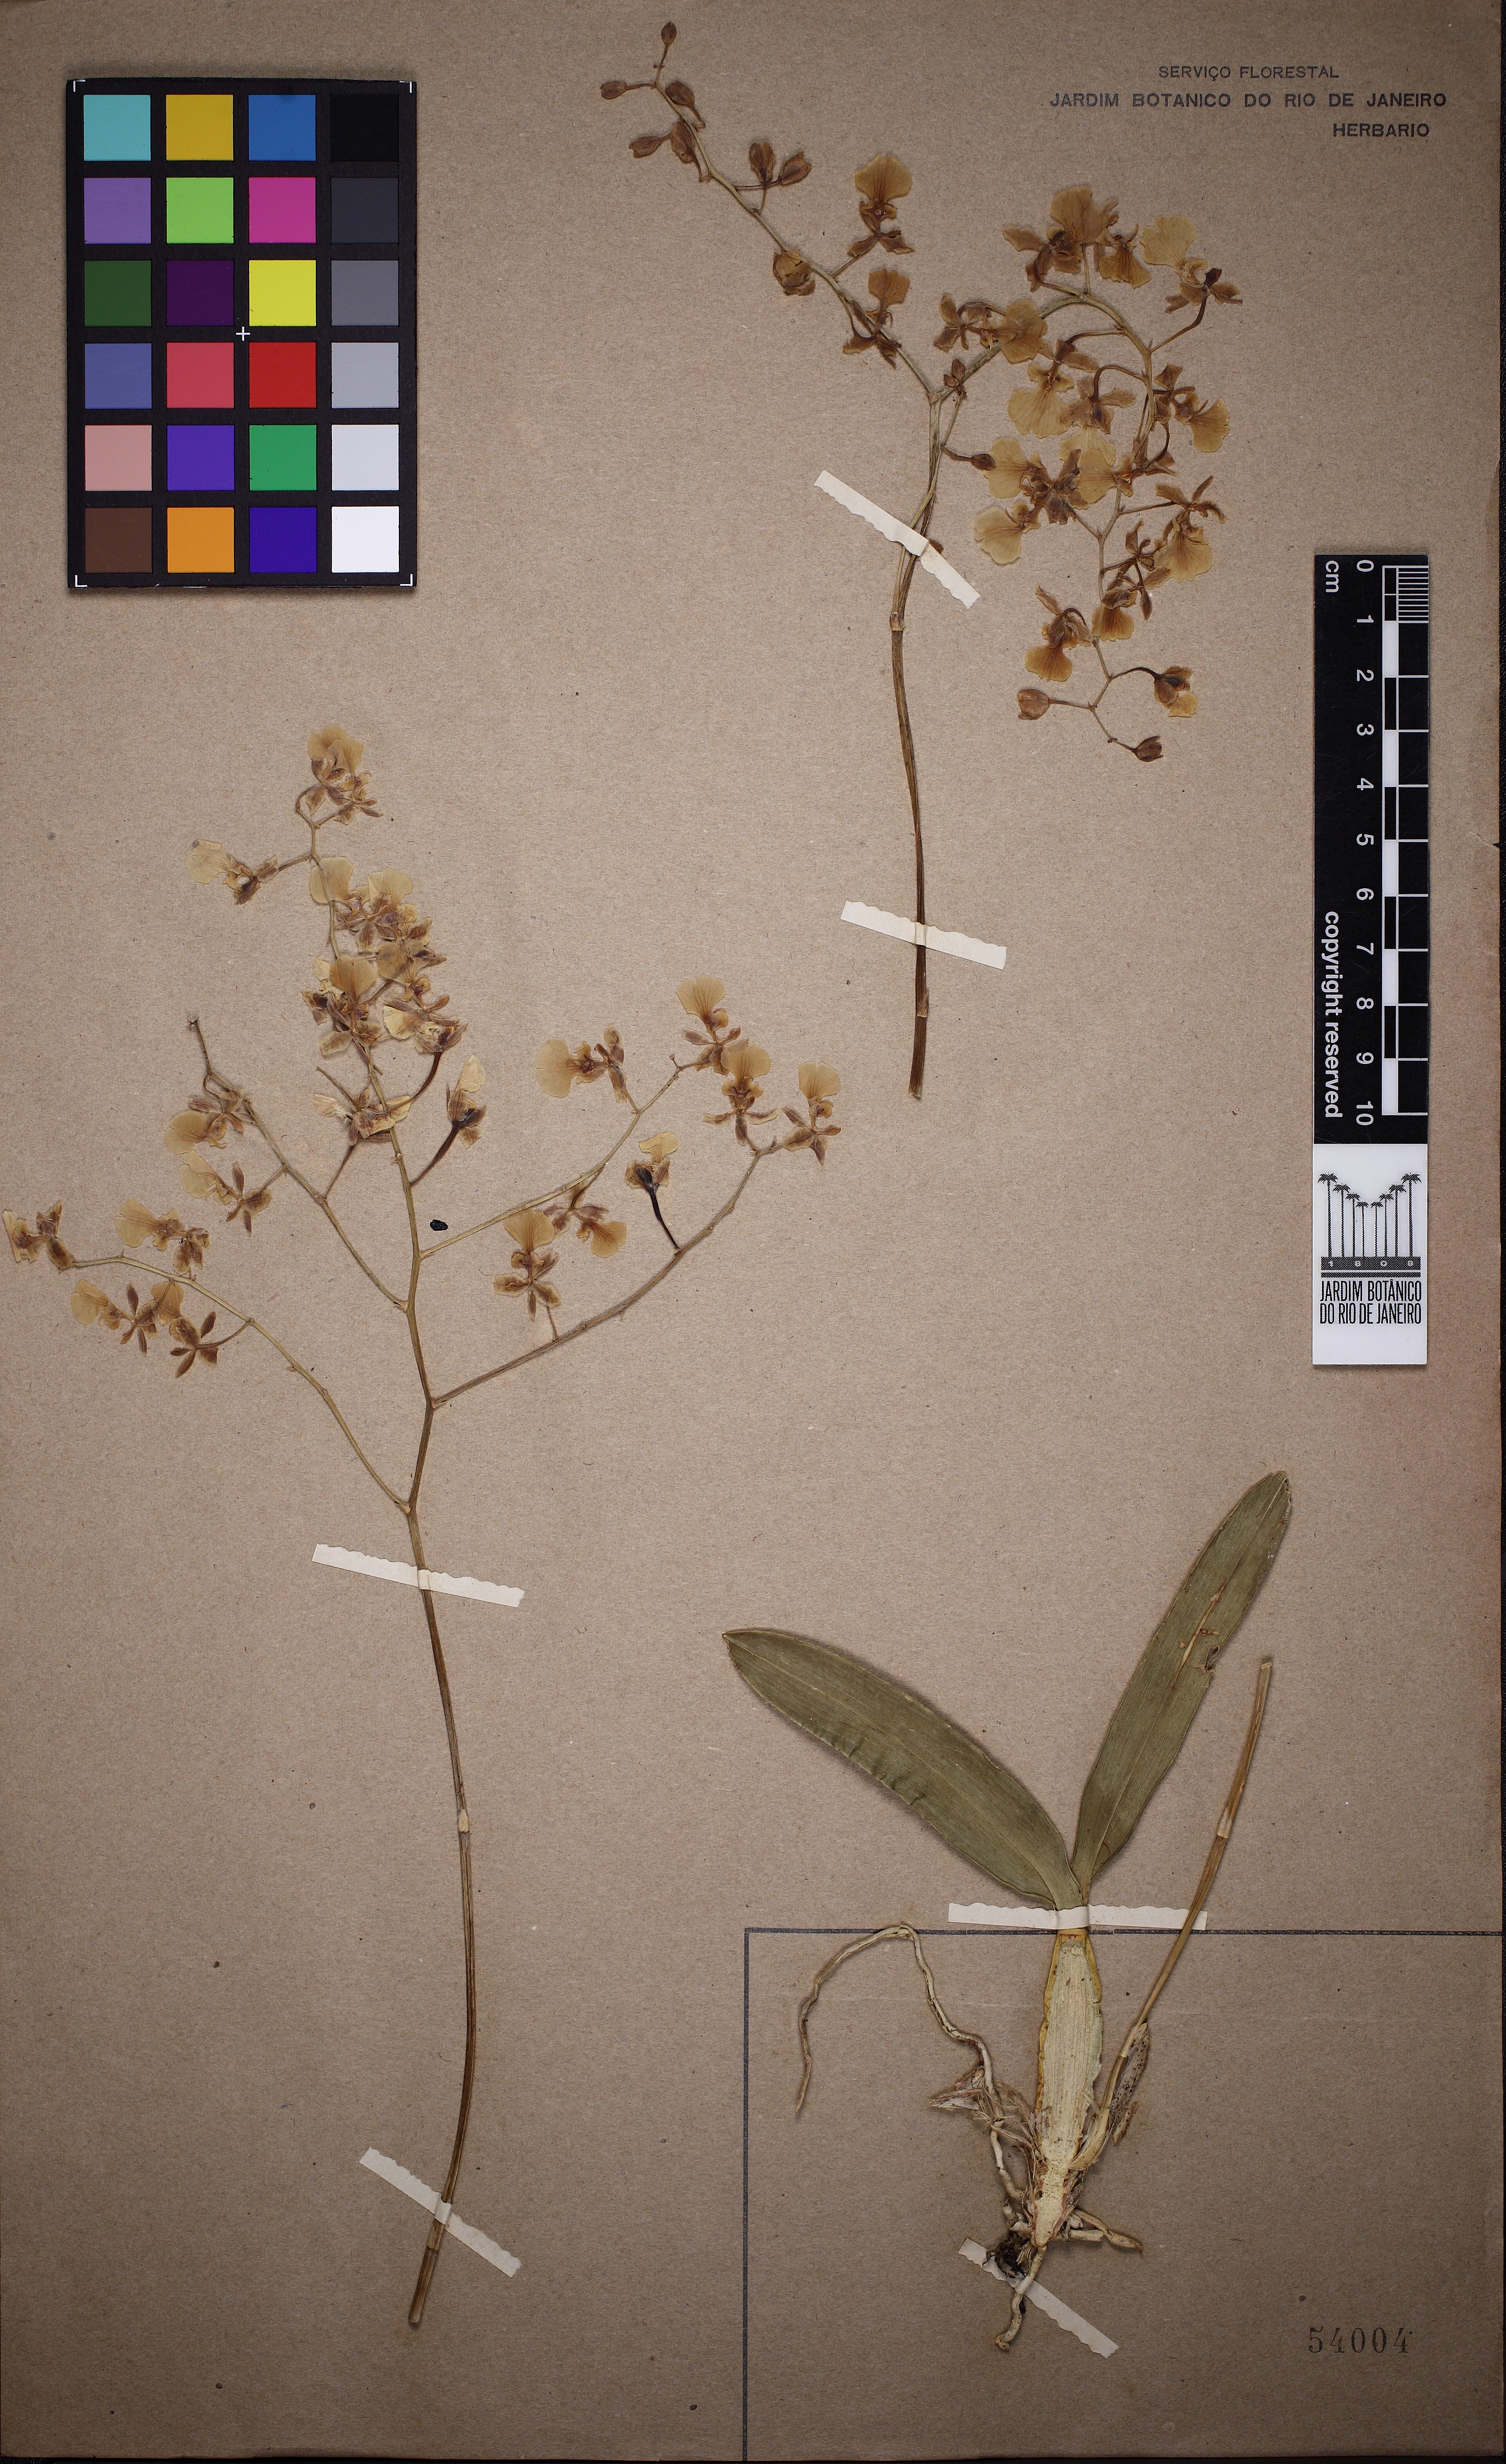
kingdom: Plantae
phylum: Tracheophyta
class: Liliopsida
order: Asparagales
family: Orchidaceae
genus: Gomesa
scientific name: Gomesa florida
